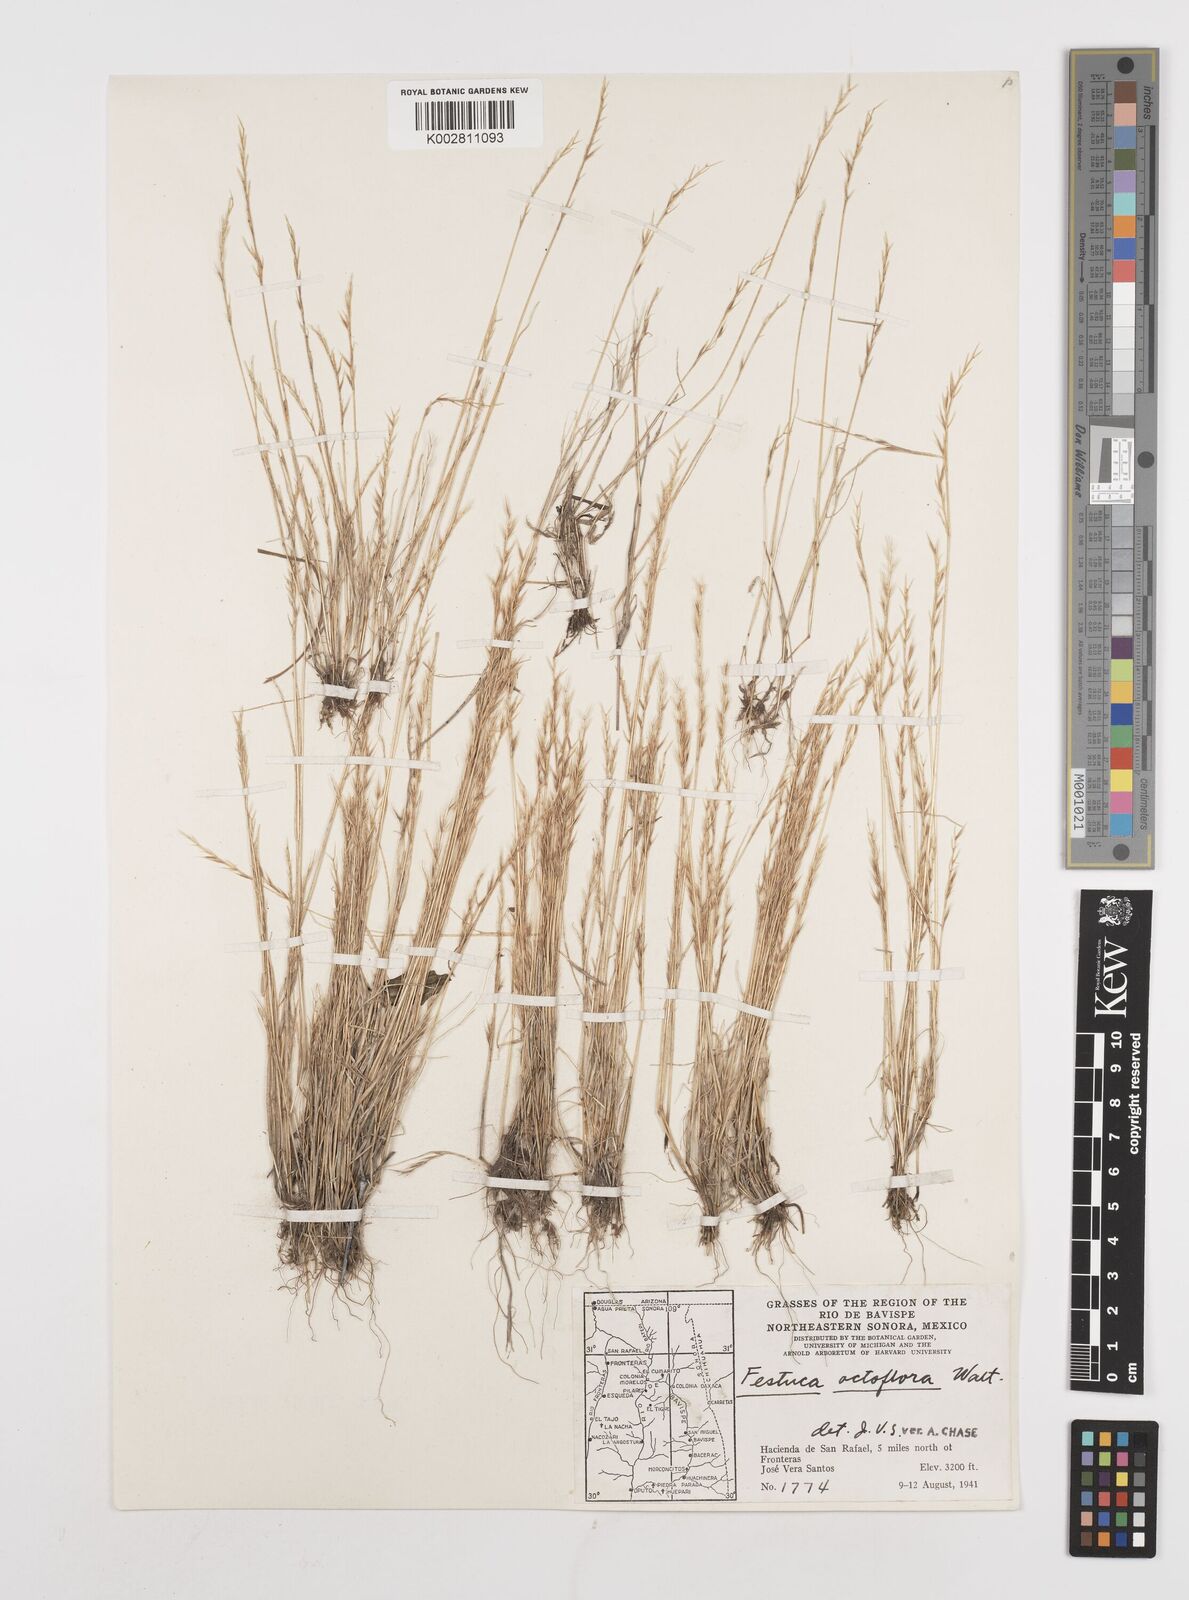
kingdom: Plantae
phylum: Tracheophyta
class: Liliopsida
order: Poales
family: Poaceae
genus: Festuca
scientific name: Festuca octoflora
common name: Sixweeks grass
